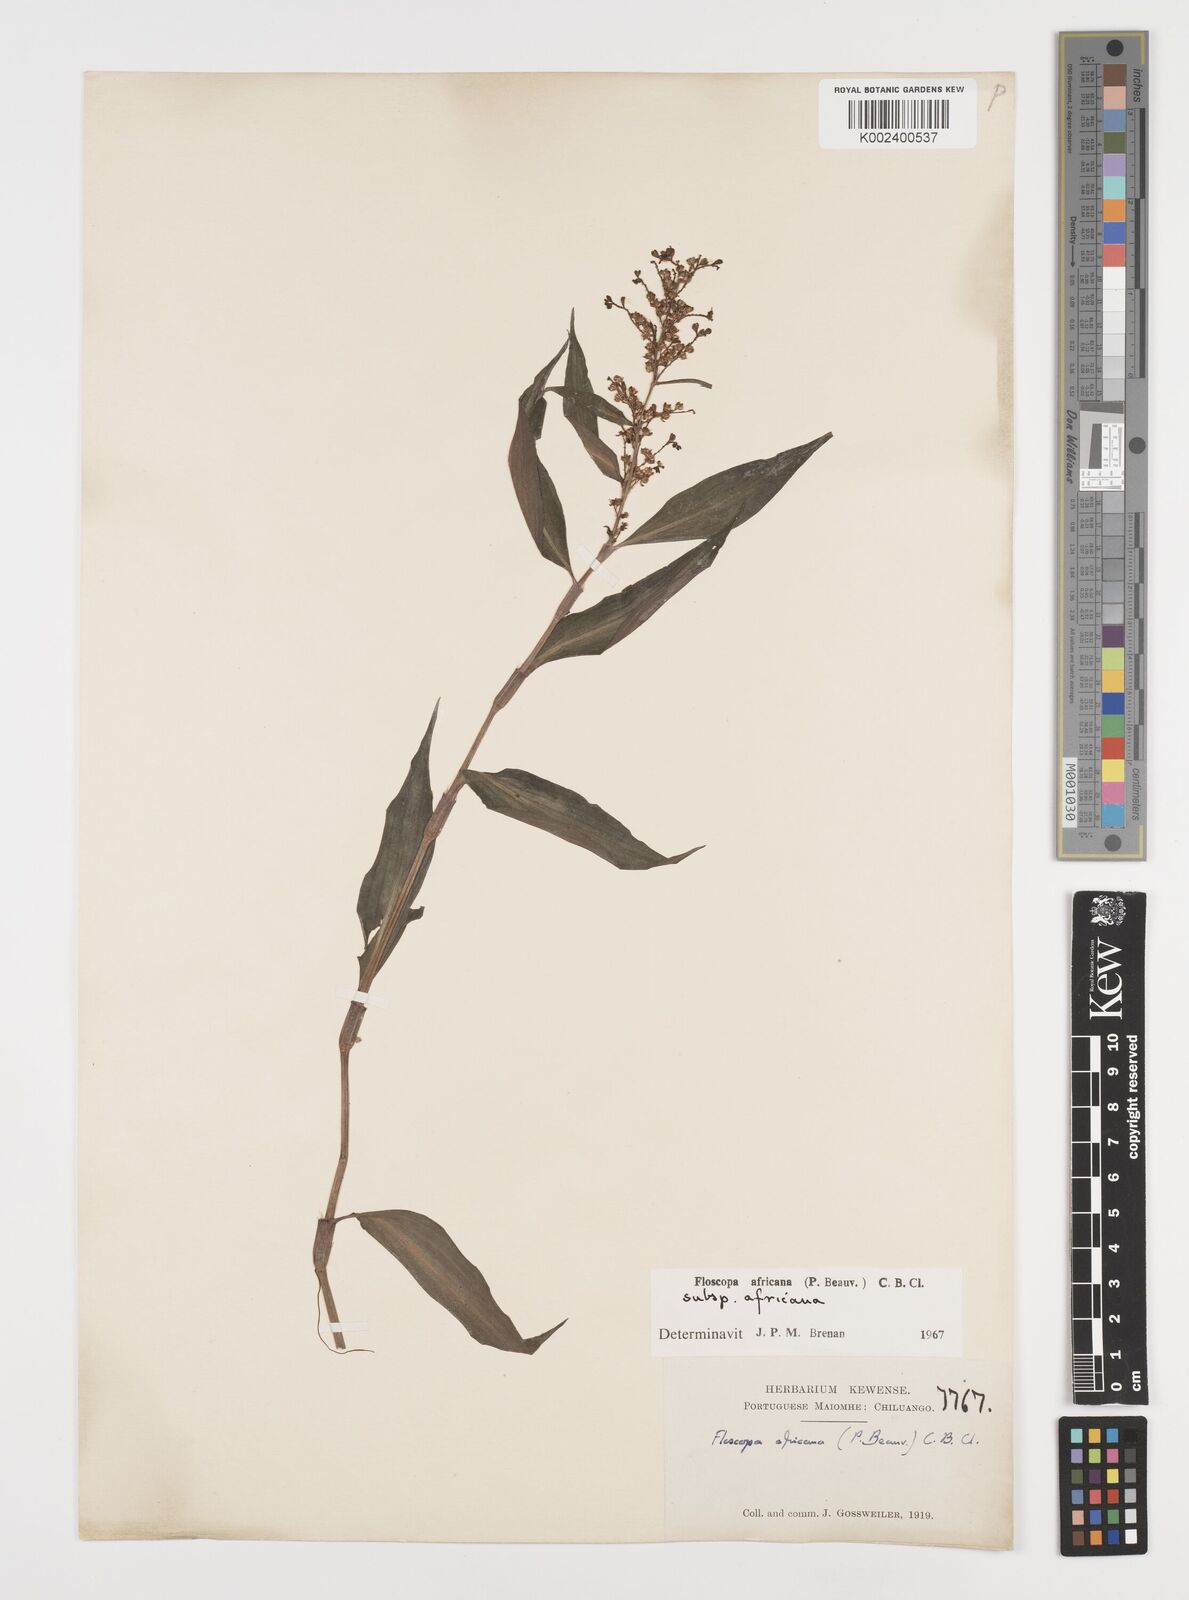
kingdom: Plantae
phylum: Tracheophyta
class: Liliopsida
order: Commelinales
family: Commelinaceae
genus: Floscopa
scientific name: Floscopa africana
